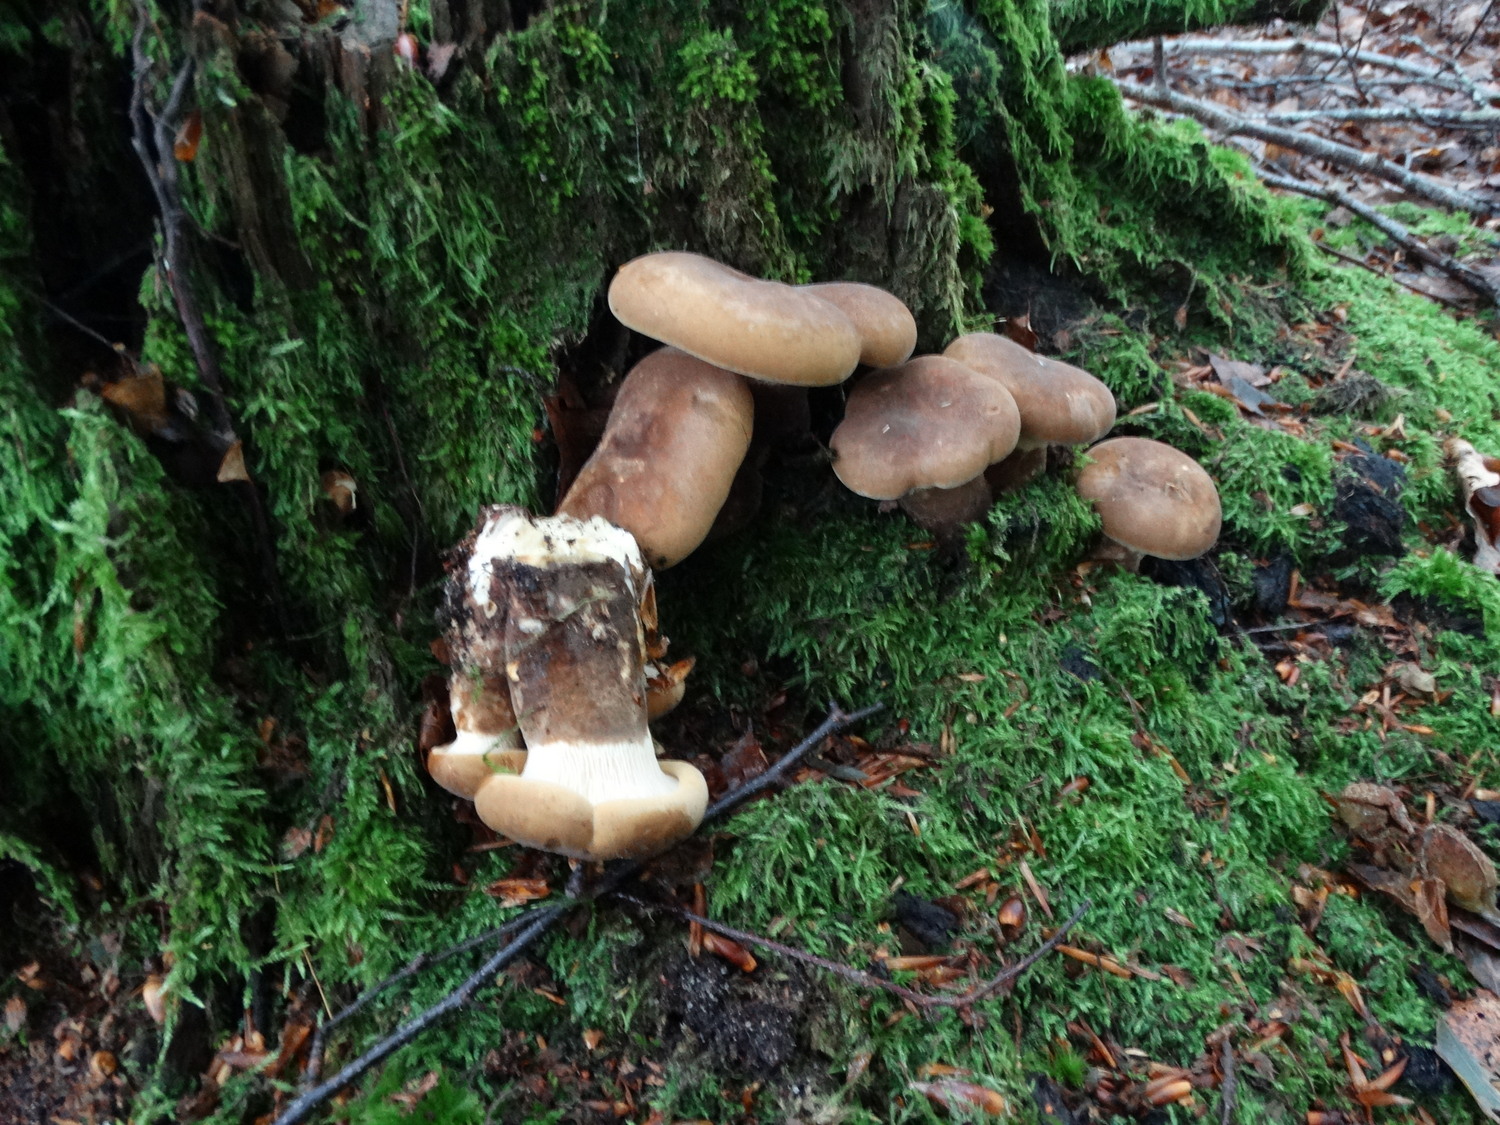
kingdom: Fungi
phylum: Basidiomycota
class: Agaricomycetes
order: Boletales
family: Tapinellaceae
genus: Tapinella
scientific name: Tapinella atrotomentosa
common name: sortfiltet viftesvamp
